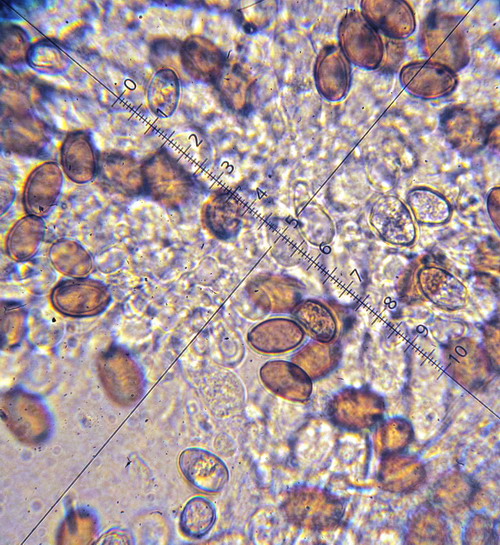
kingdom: Fungi
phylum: Basidiomycota
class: Agaricomycetes
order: Agaricales
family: Strophariaceae
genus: Agrocybe
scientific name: Agrocybe pediades
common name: almindelig agerhat
